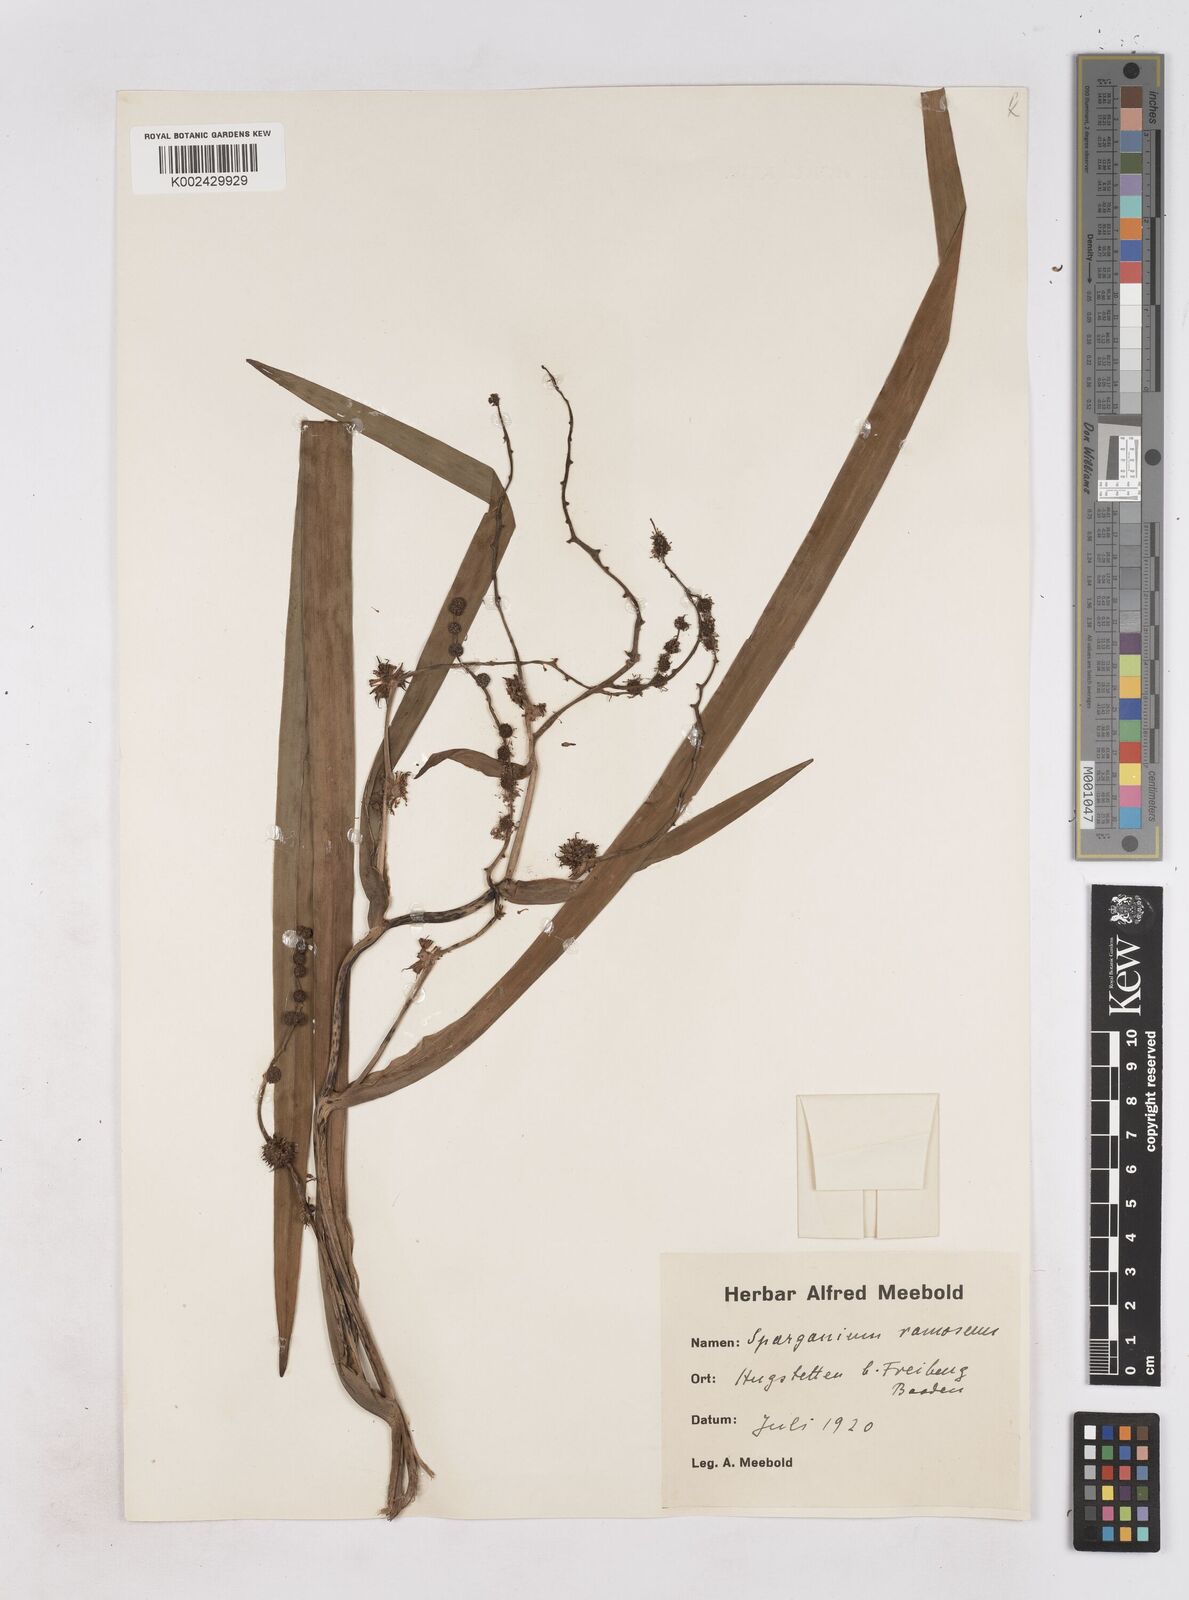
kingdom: Plantae
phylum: Tracheophyta
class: Liliopsida
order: Poales
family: Typhaceae
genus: Sparganium
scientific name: Sparganium erectum
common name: Branched bur-reed
